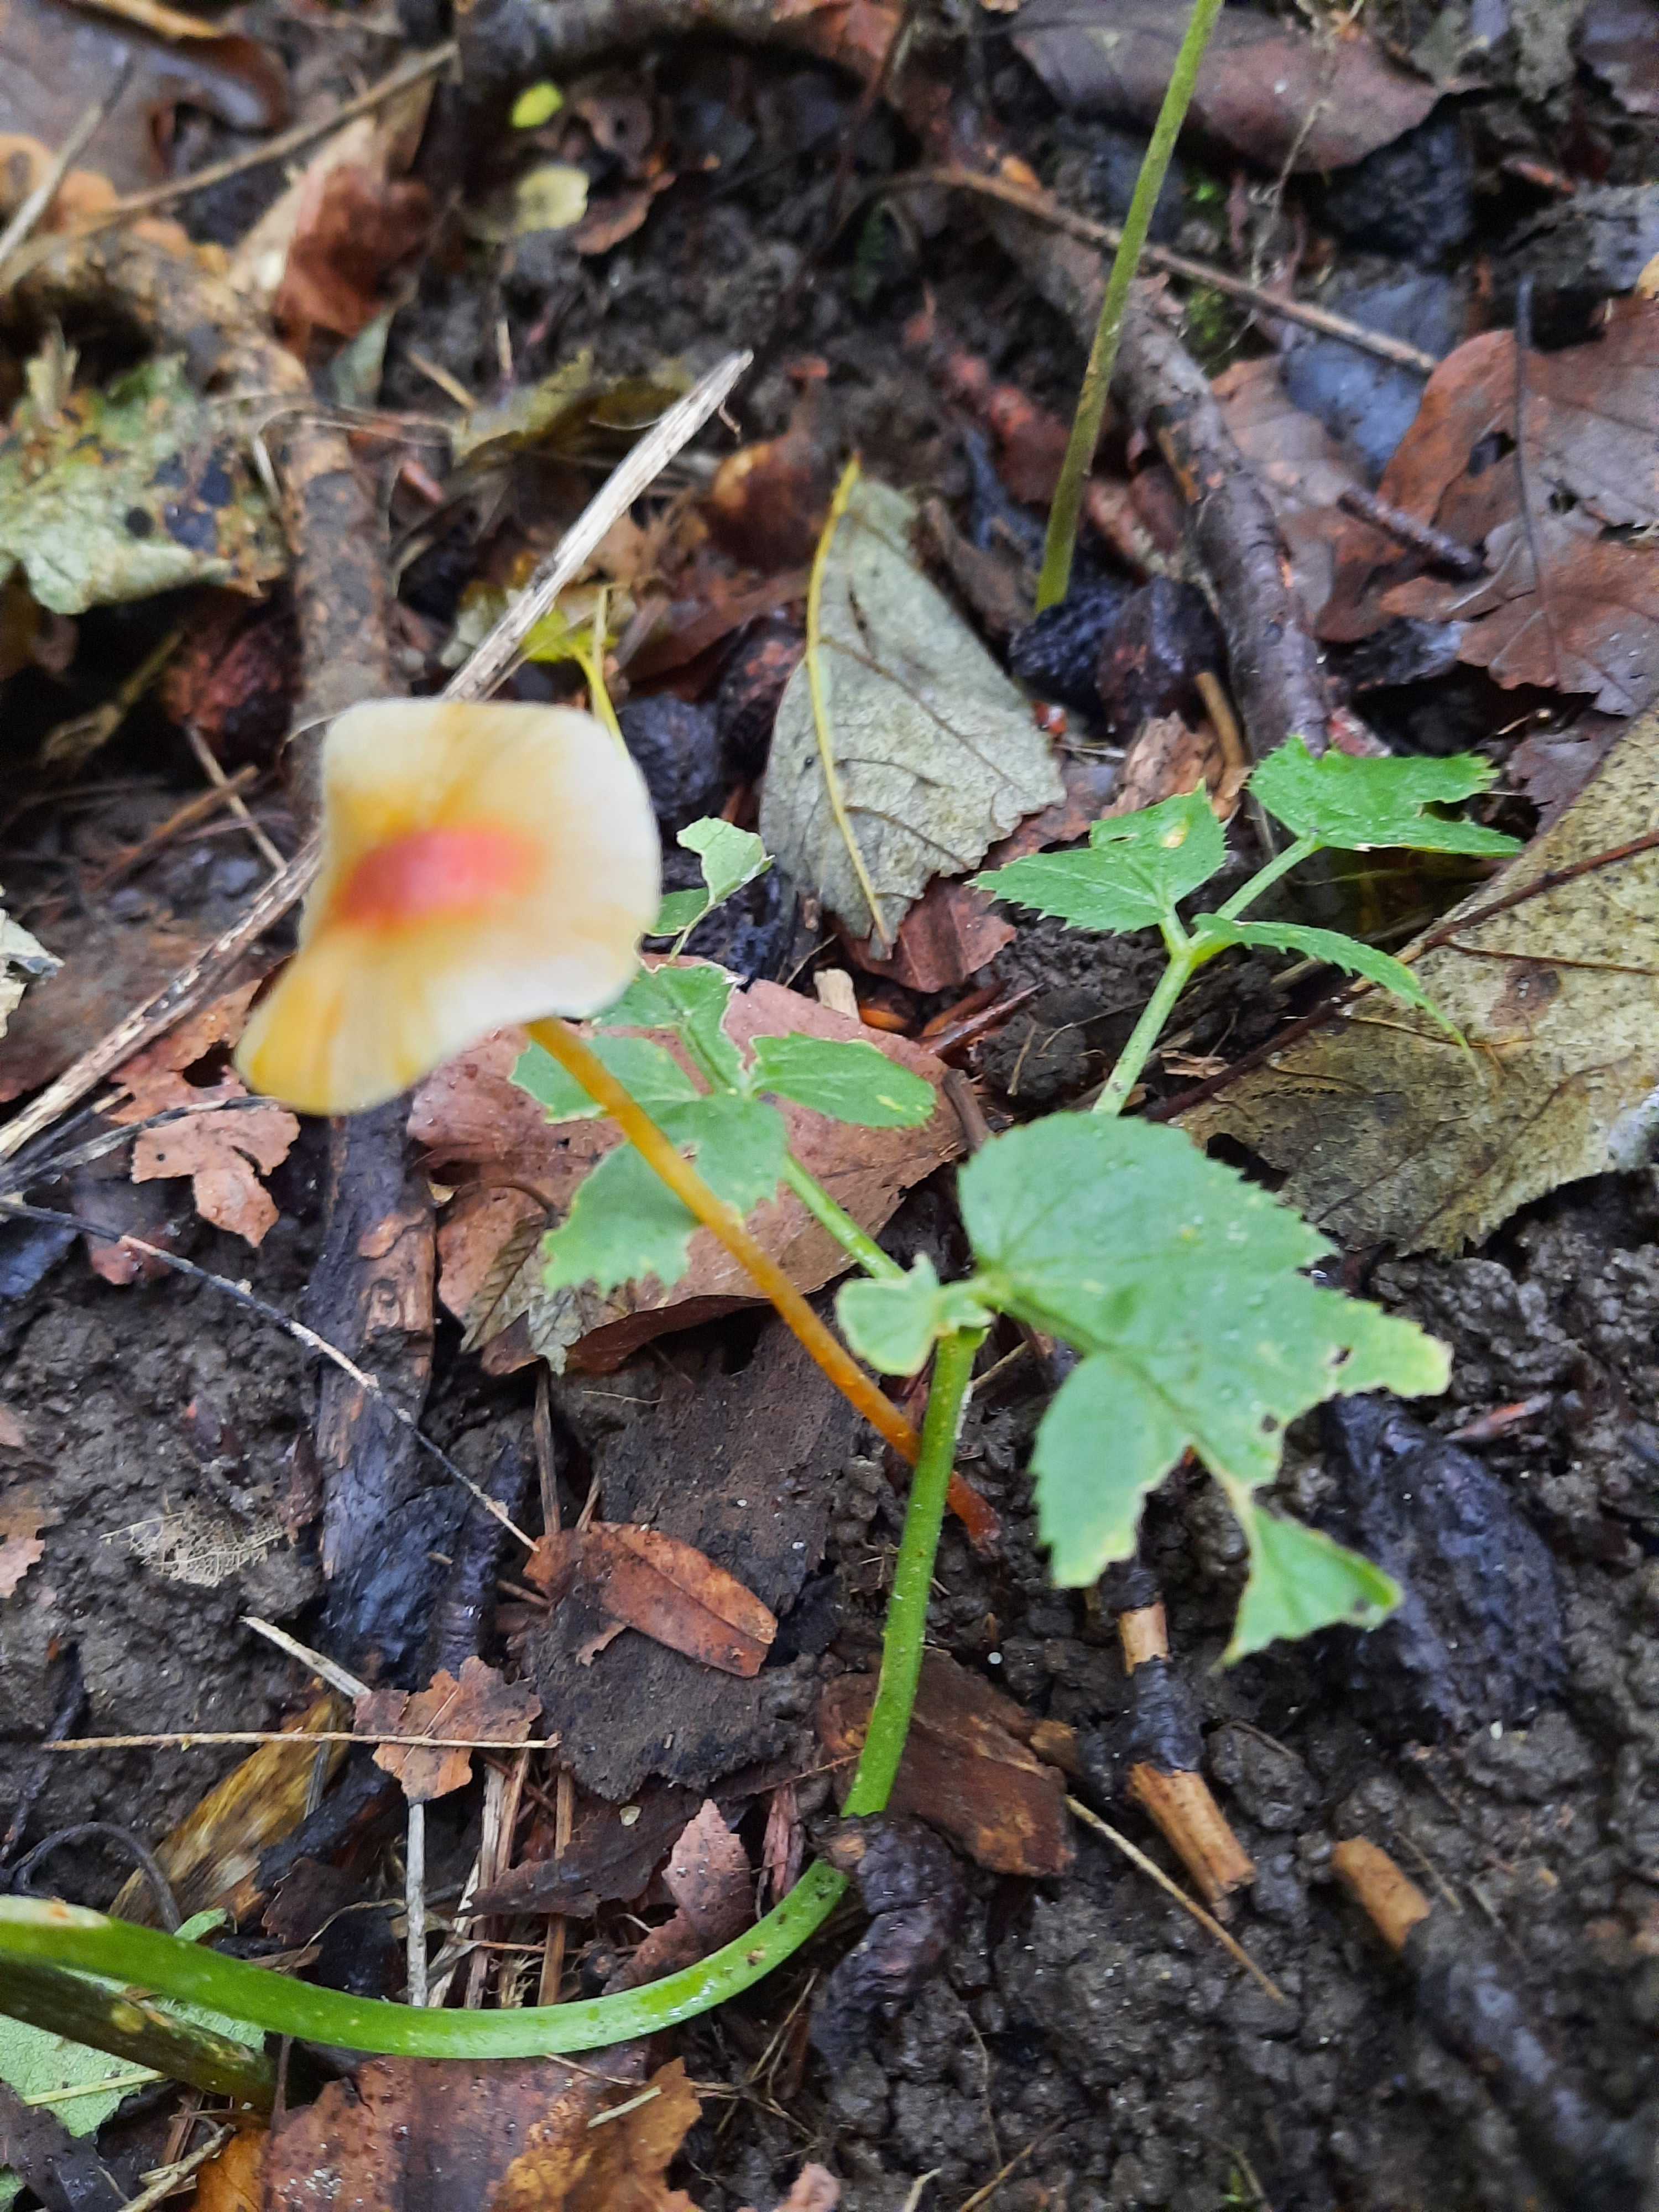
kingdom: Fungi
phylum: Basidiomycota
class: Agaricomycetes
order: Agaricales
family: Mycenaceae
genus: Mycena
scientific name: Mycena crocata
